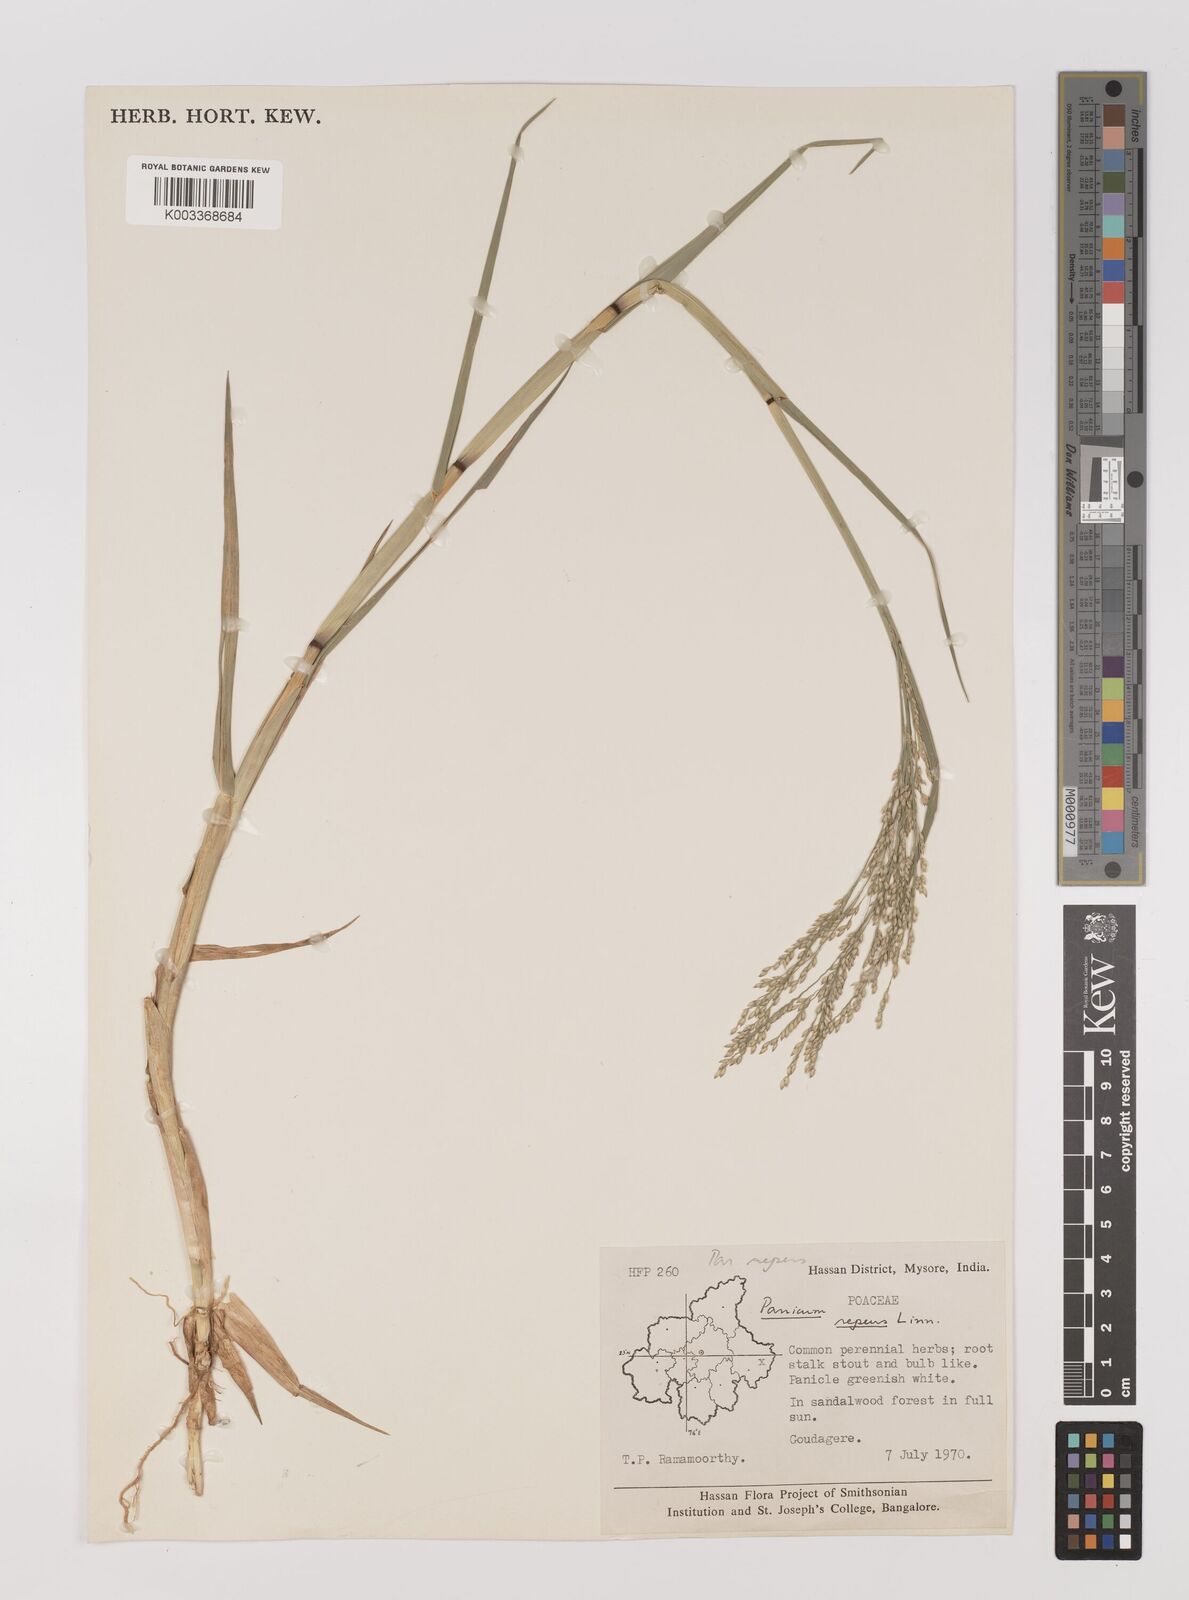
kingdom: Plantae
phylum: Tracheophyta
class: Liliopsida
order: Poales
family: Poaceae
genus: Panicum
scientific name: Panicum repens
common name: Torpedo grass
